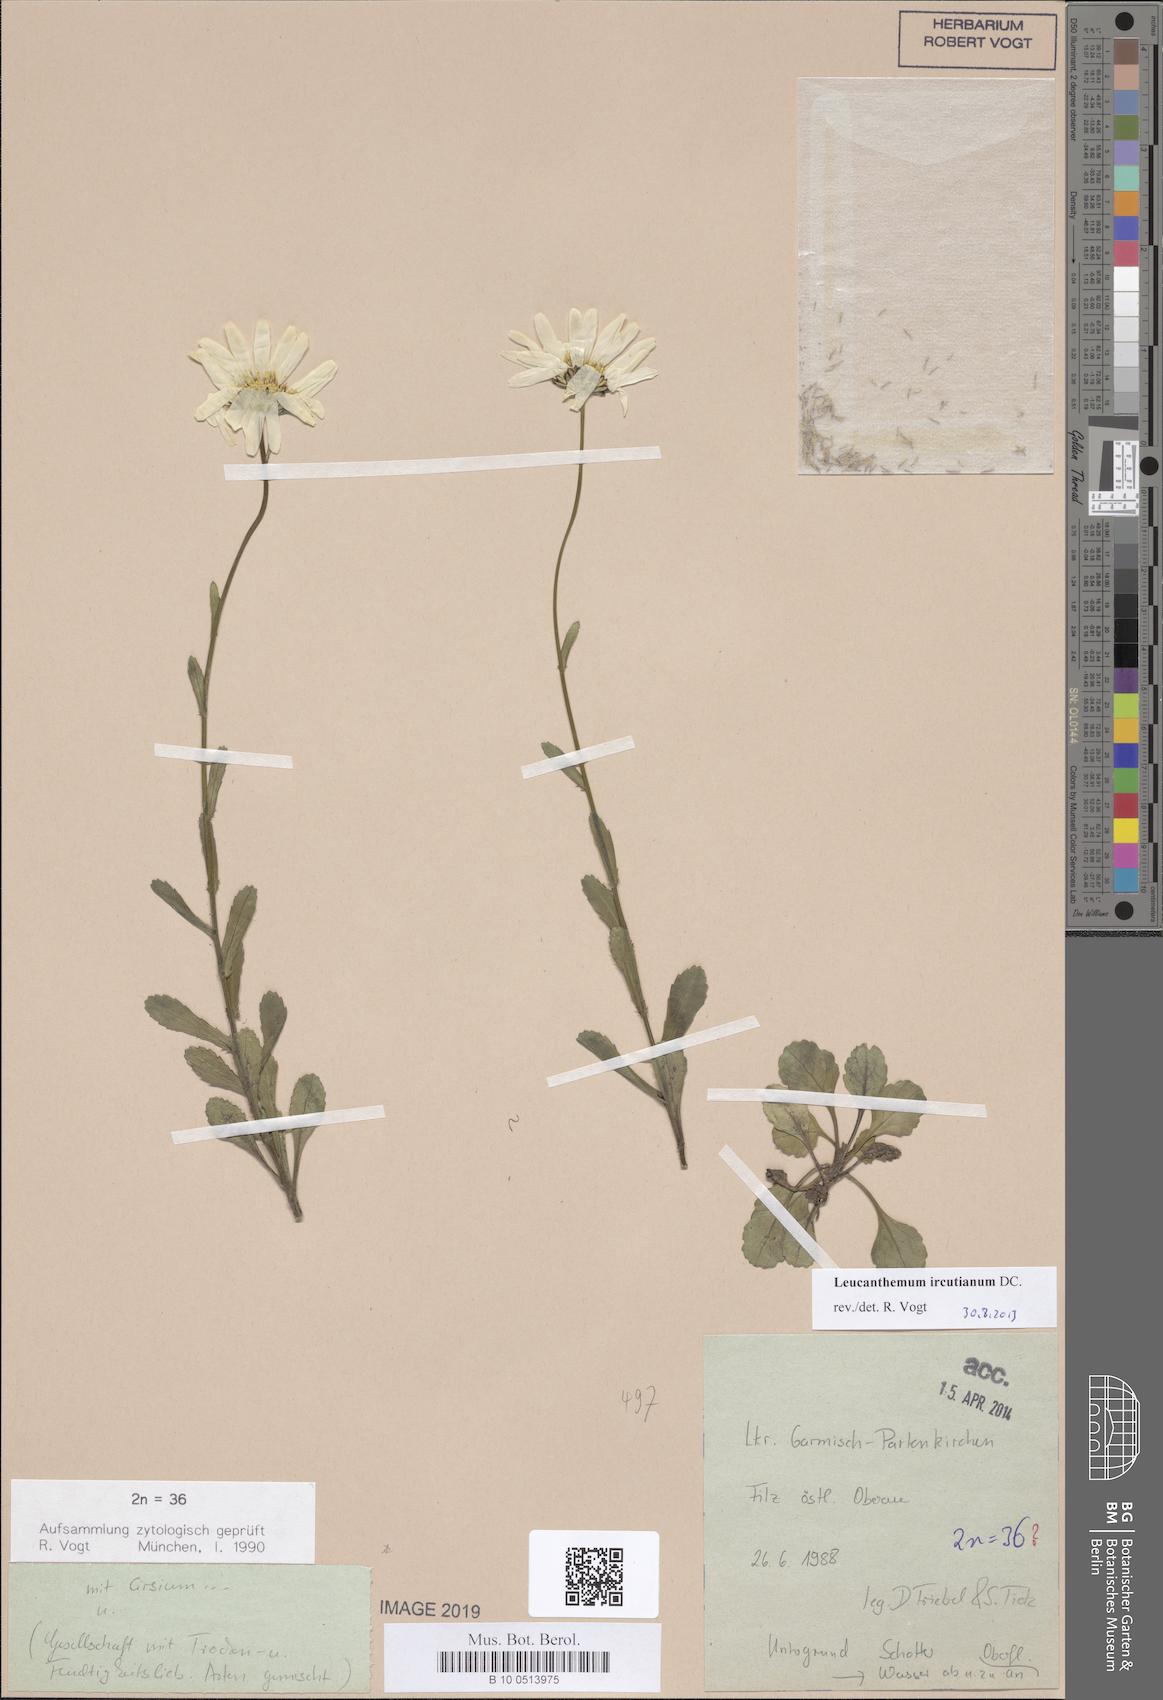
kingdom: Plantae
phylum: Tracheophyta
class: Magnoliopsida
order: Asterales
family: Asteraceae
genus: Leucanthemum
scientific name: Leucanthemum ircutianum
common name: Daisy
